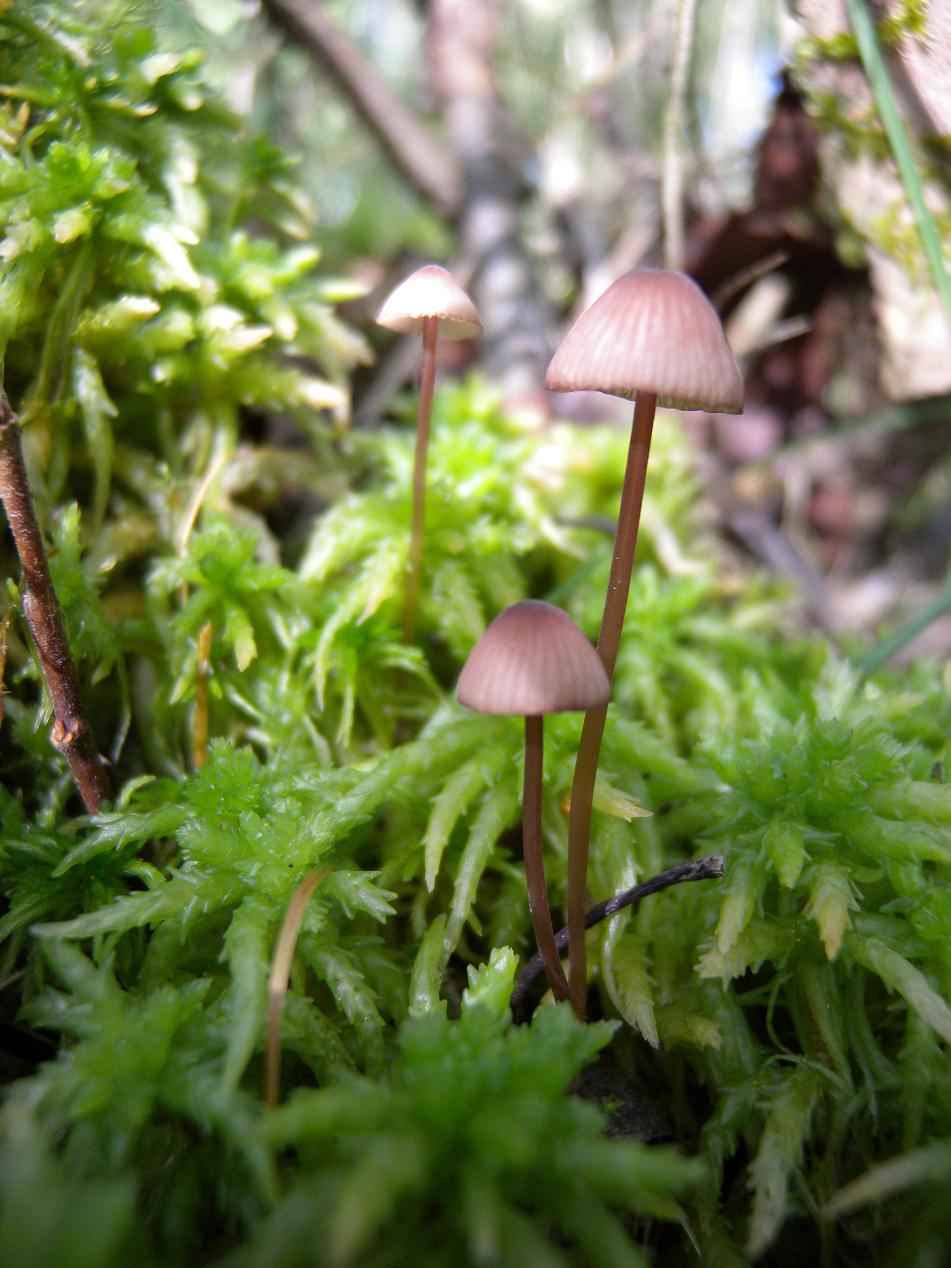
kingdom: Fungi
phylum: Basidiomycota
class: Agaricomycetes
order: Agaricales
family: Mycenaceae
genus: Mycena
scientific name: Mycena sanguinolenta
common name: rødmælket huesvamp
